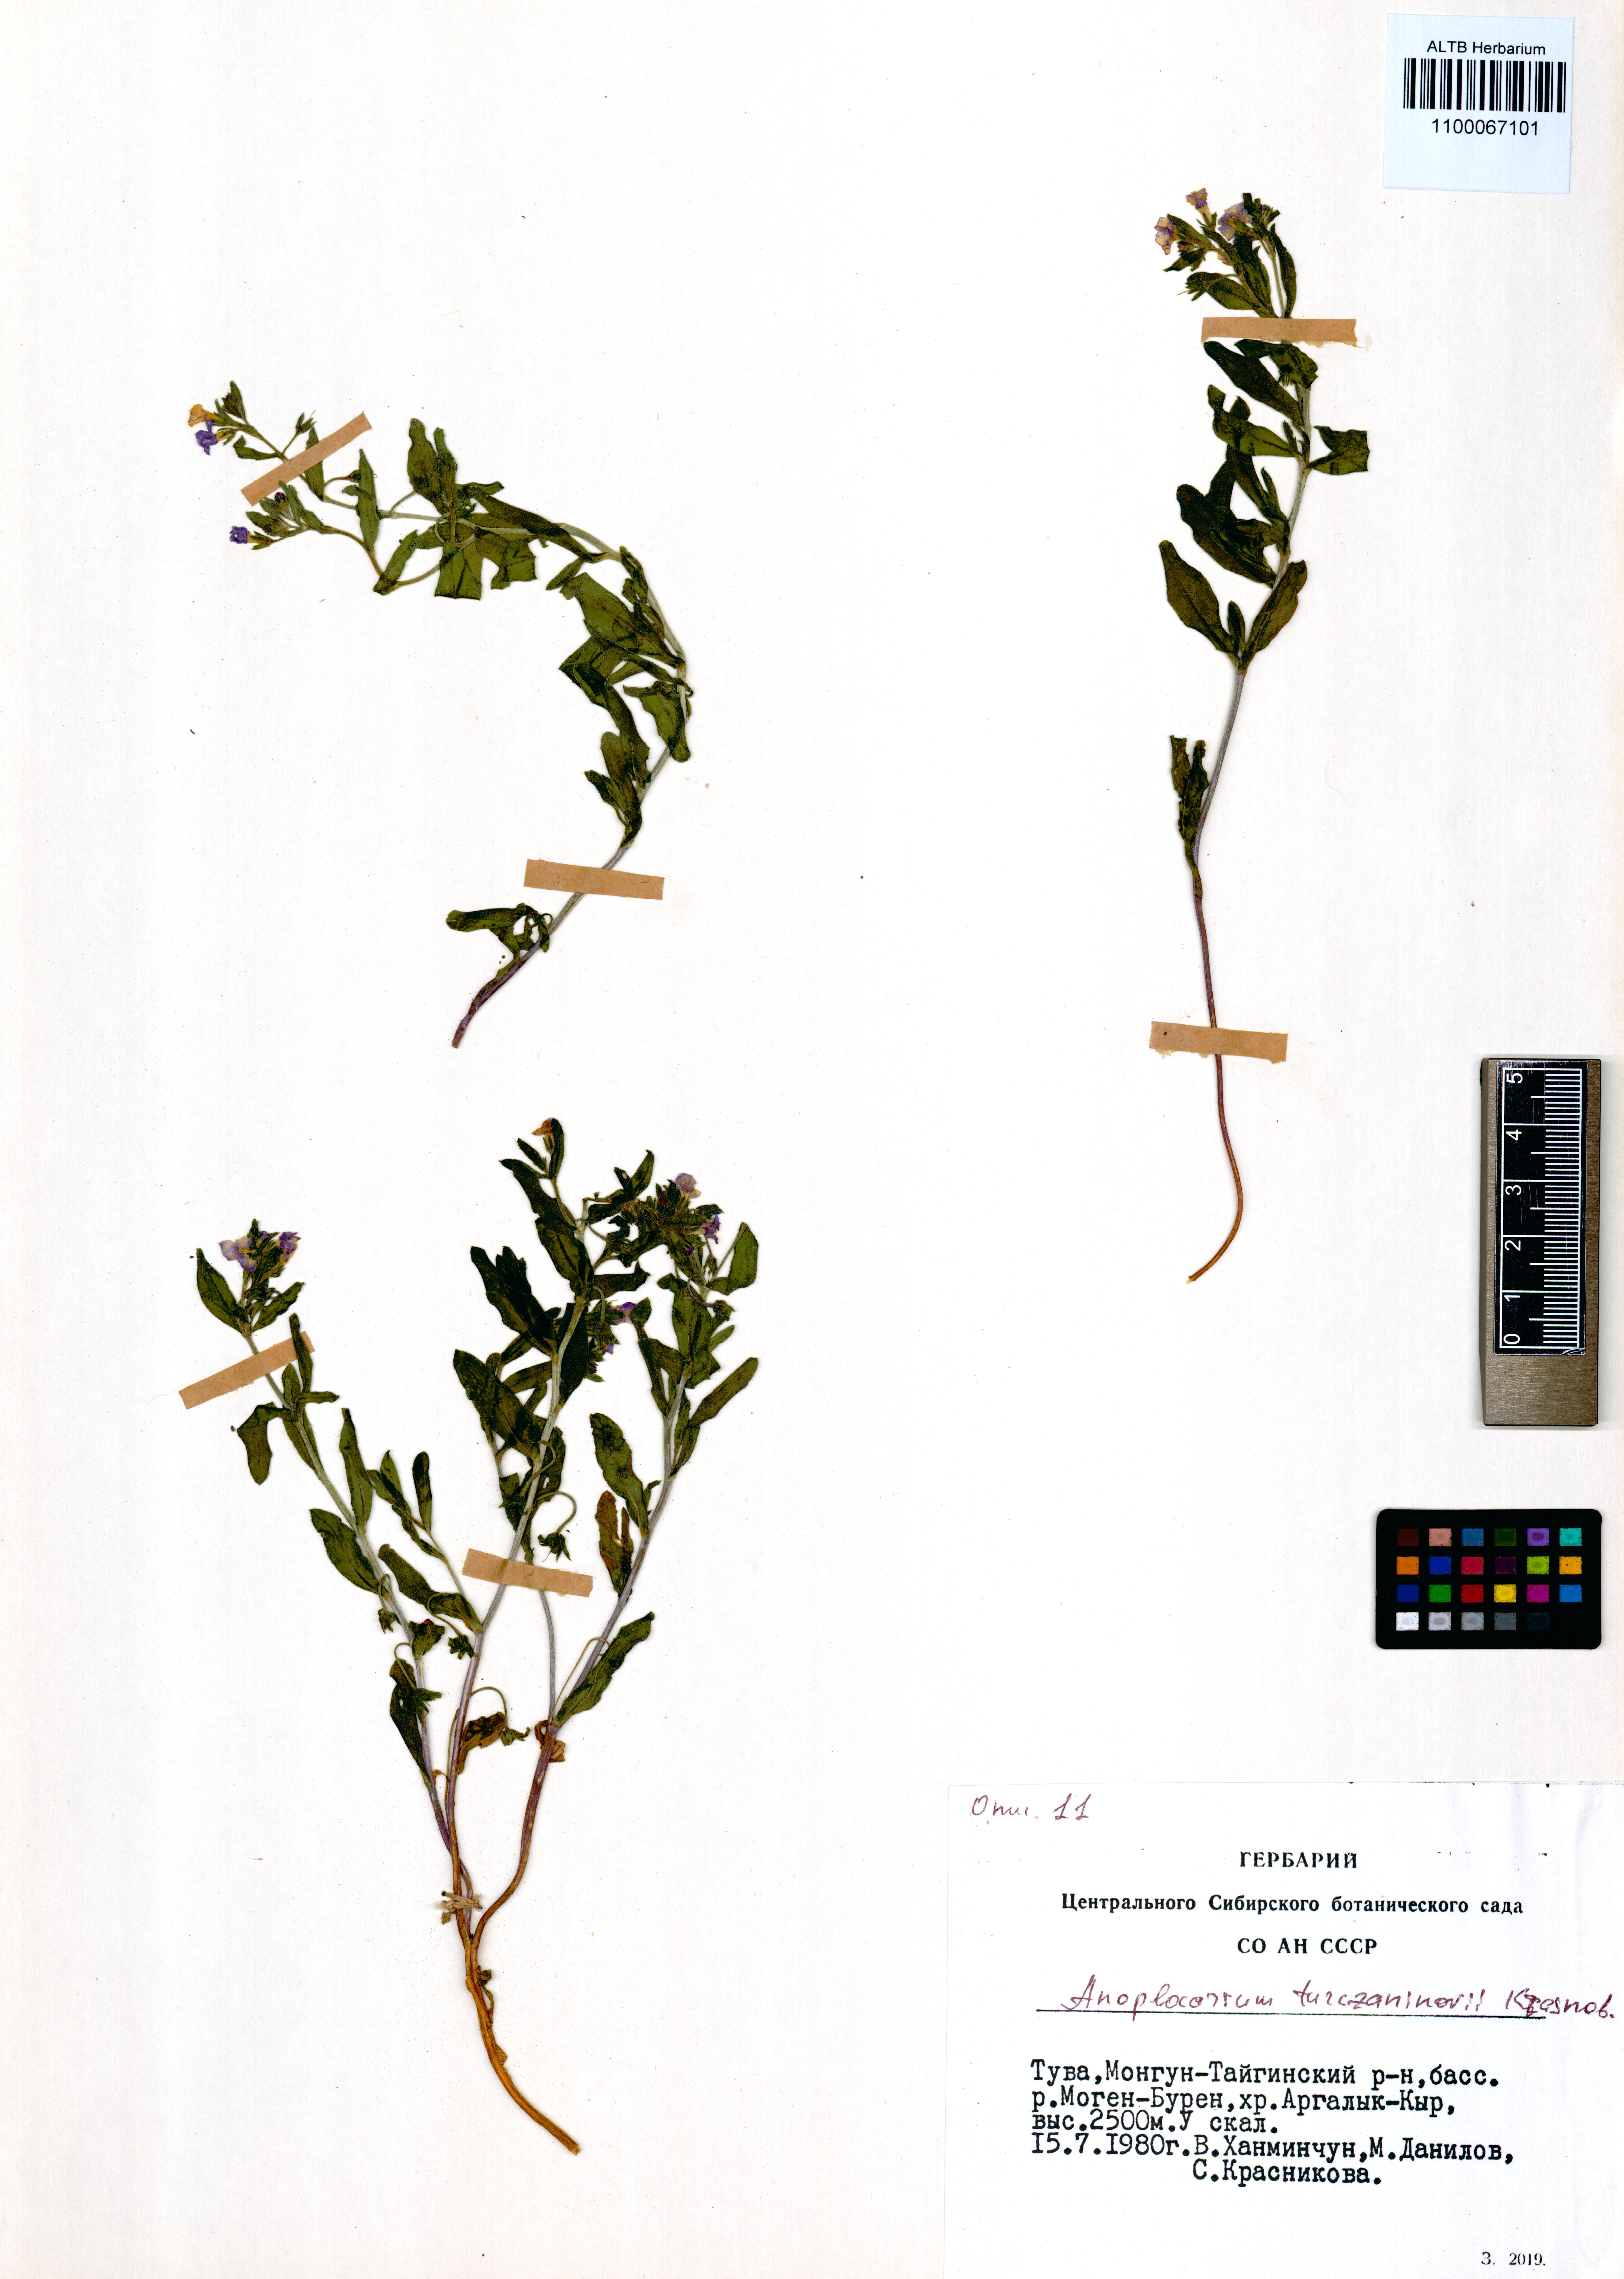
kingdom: Plantae
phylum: Tracheophyta
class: Magnoliopsida
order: Boraginales
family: Boraginaceae
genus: Anoplocaryum
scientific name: Anoplocaryum turczaninovii
